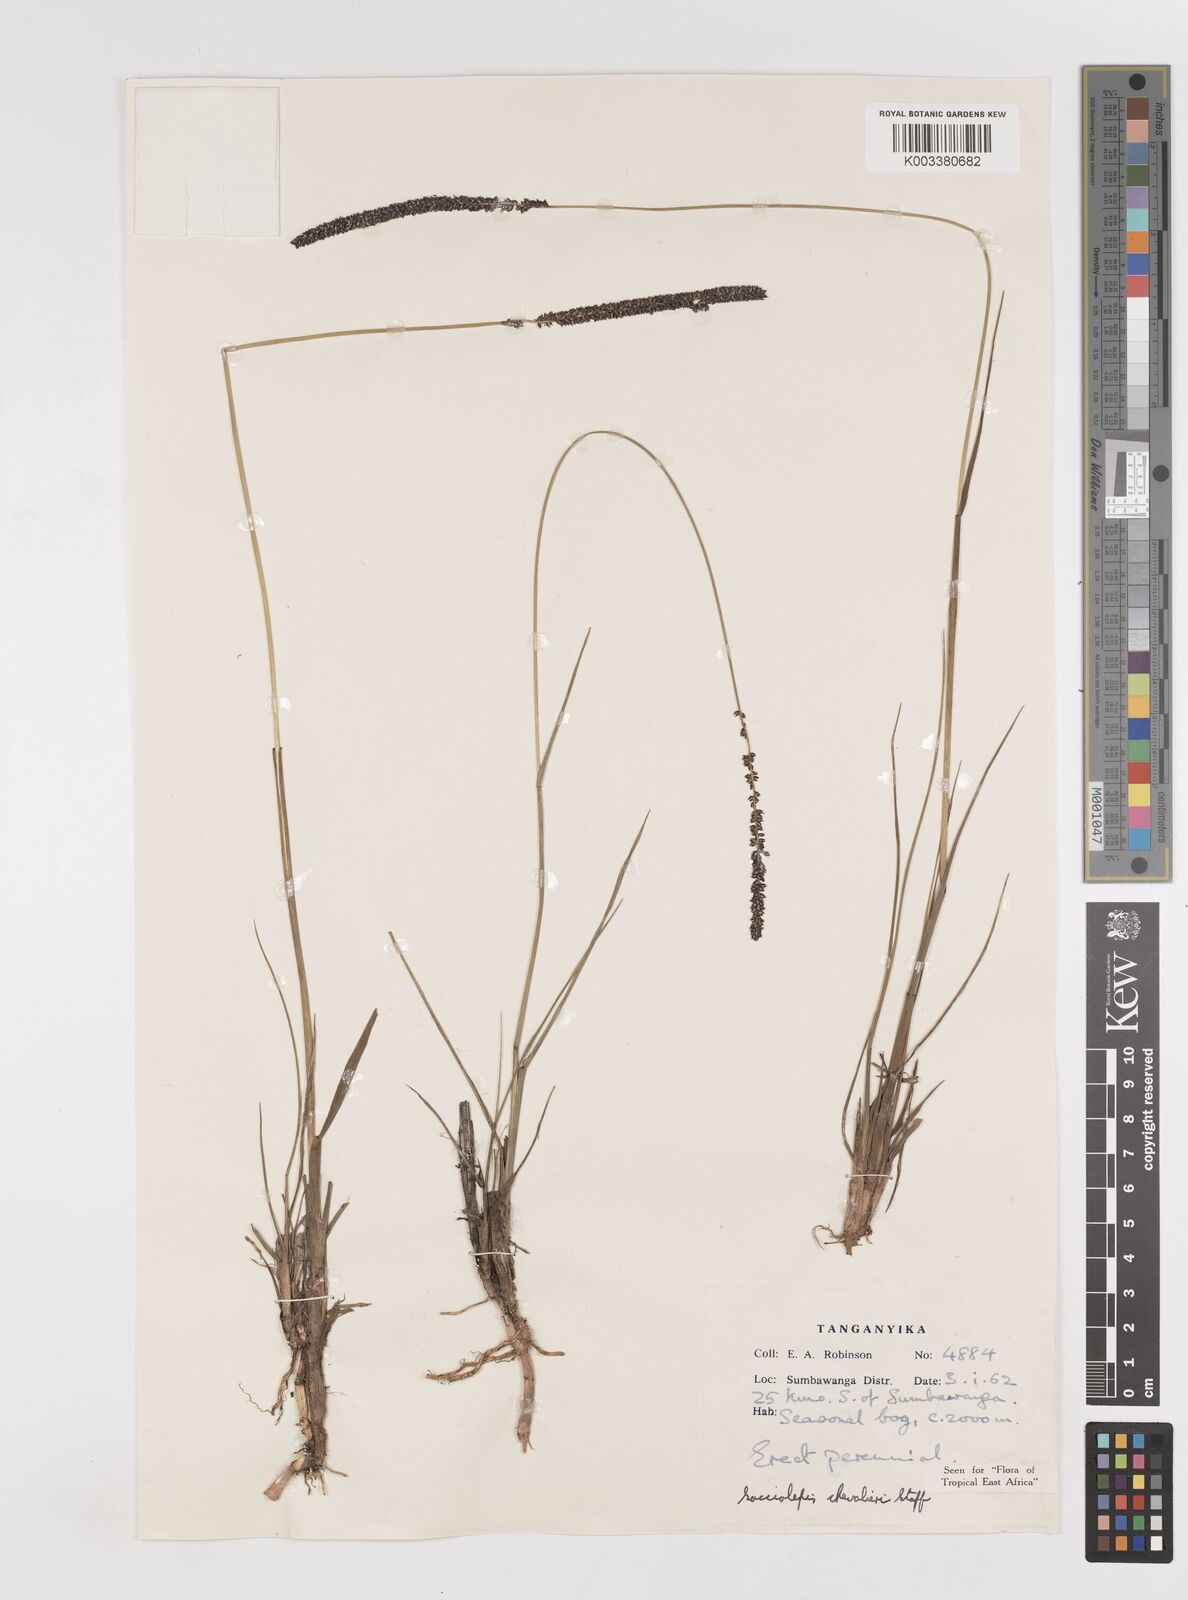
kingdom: Plantae
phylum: Tracheophyta
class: Liliopsida
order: Poales
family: Poaceae
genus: Sacciolepis
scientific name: Sacciolepis chevalieri
